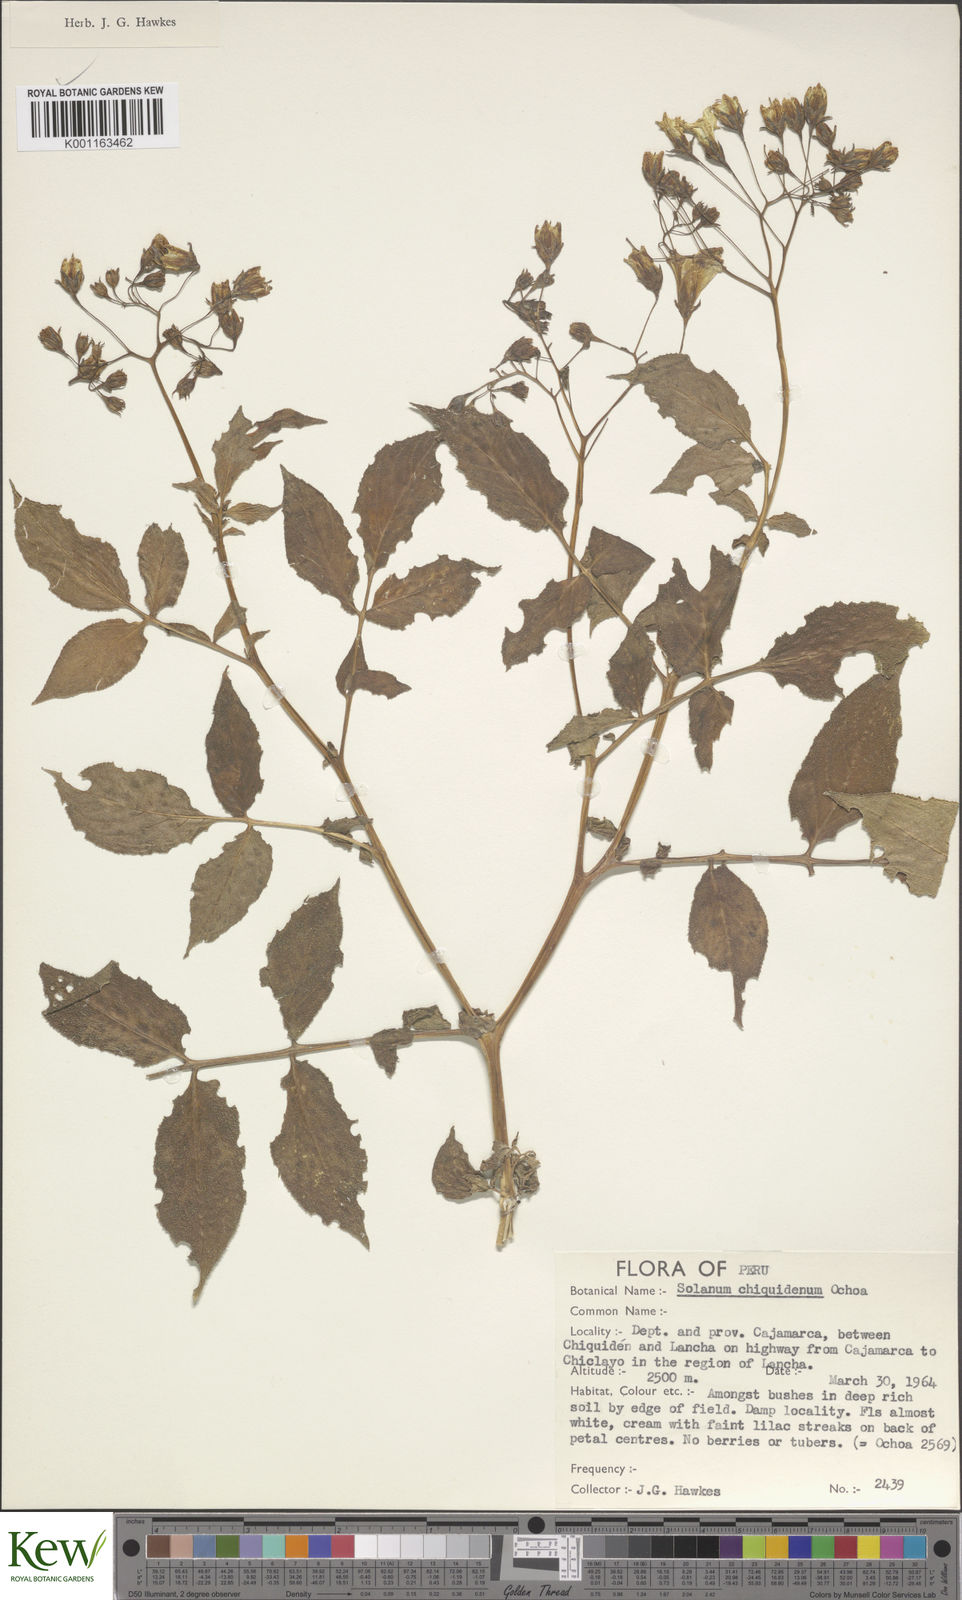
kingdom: Plantae
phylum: Tracheophyta
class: Magnoliopsida
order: Solanales
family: Solanaceae
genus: Solanum
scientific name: Solanum chiquidenum
